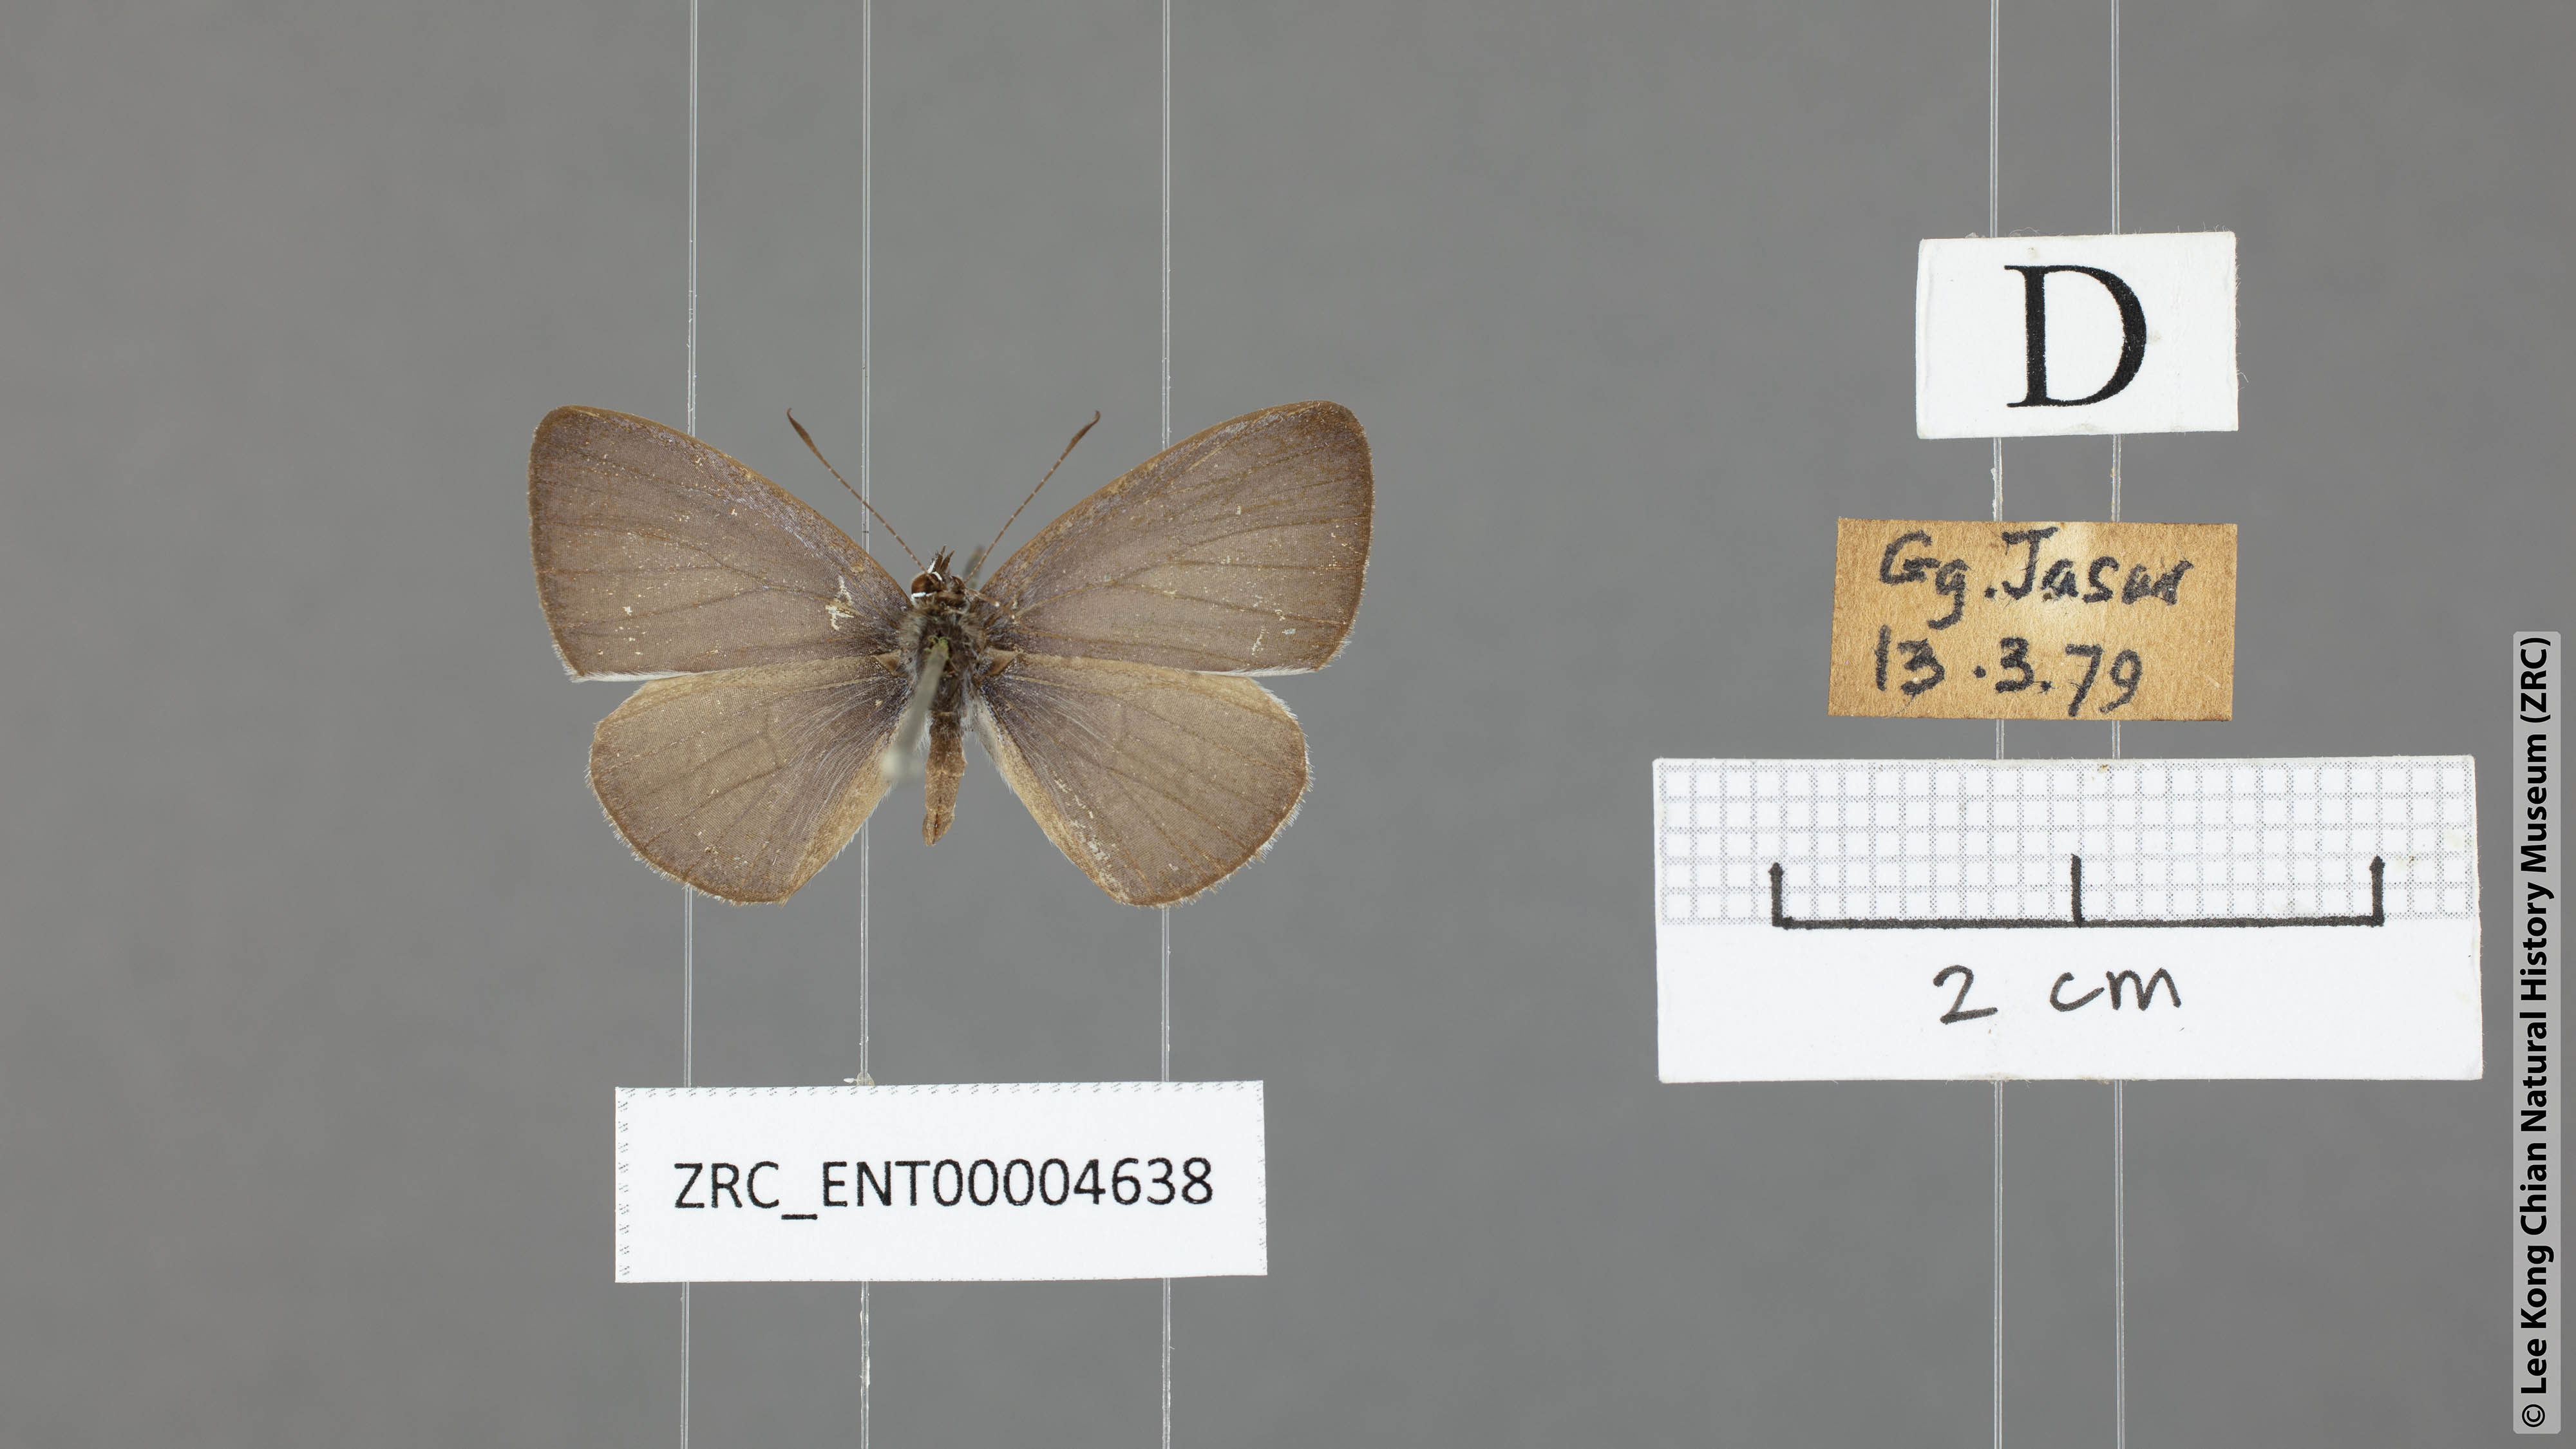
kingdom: Animalia
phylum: Arthropoda
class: Insecta
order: Lepidoptera
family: Lycaenidae
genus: Udara
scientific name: Udara
